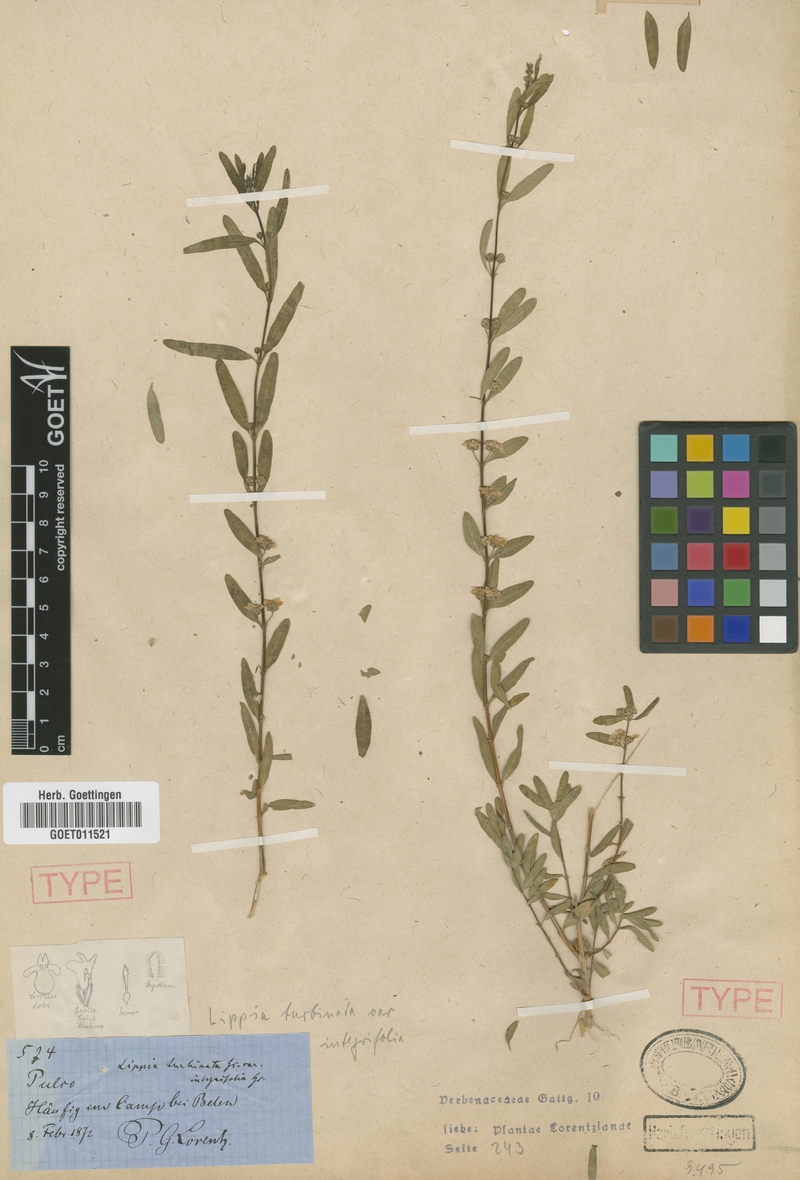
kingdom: Plantae
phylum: Tracheophyta
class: Magnoliopsida
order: Lamiales
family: Verbenaceae
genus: Lippia
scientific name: Lippia integrifolia
